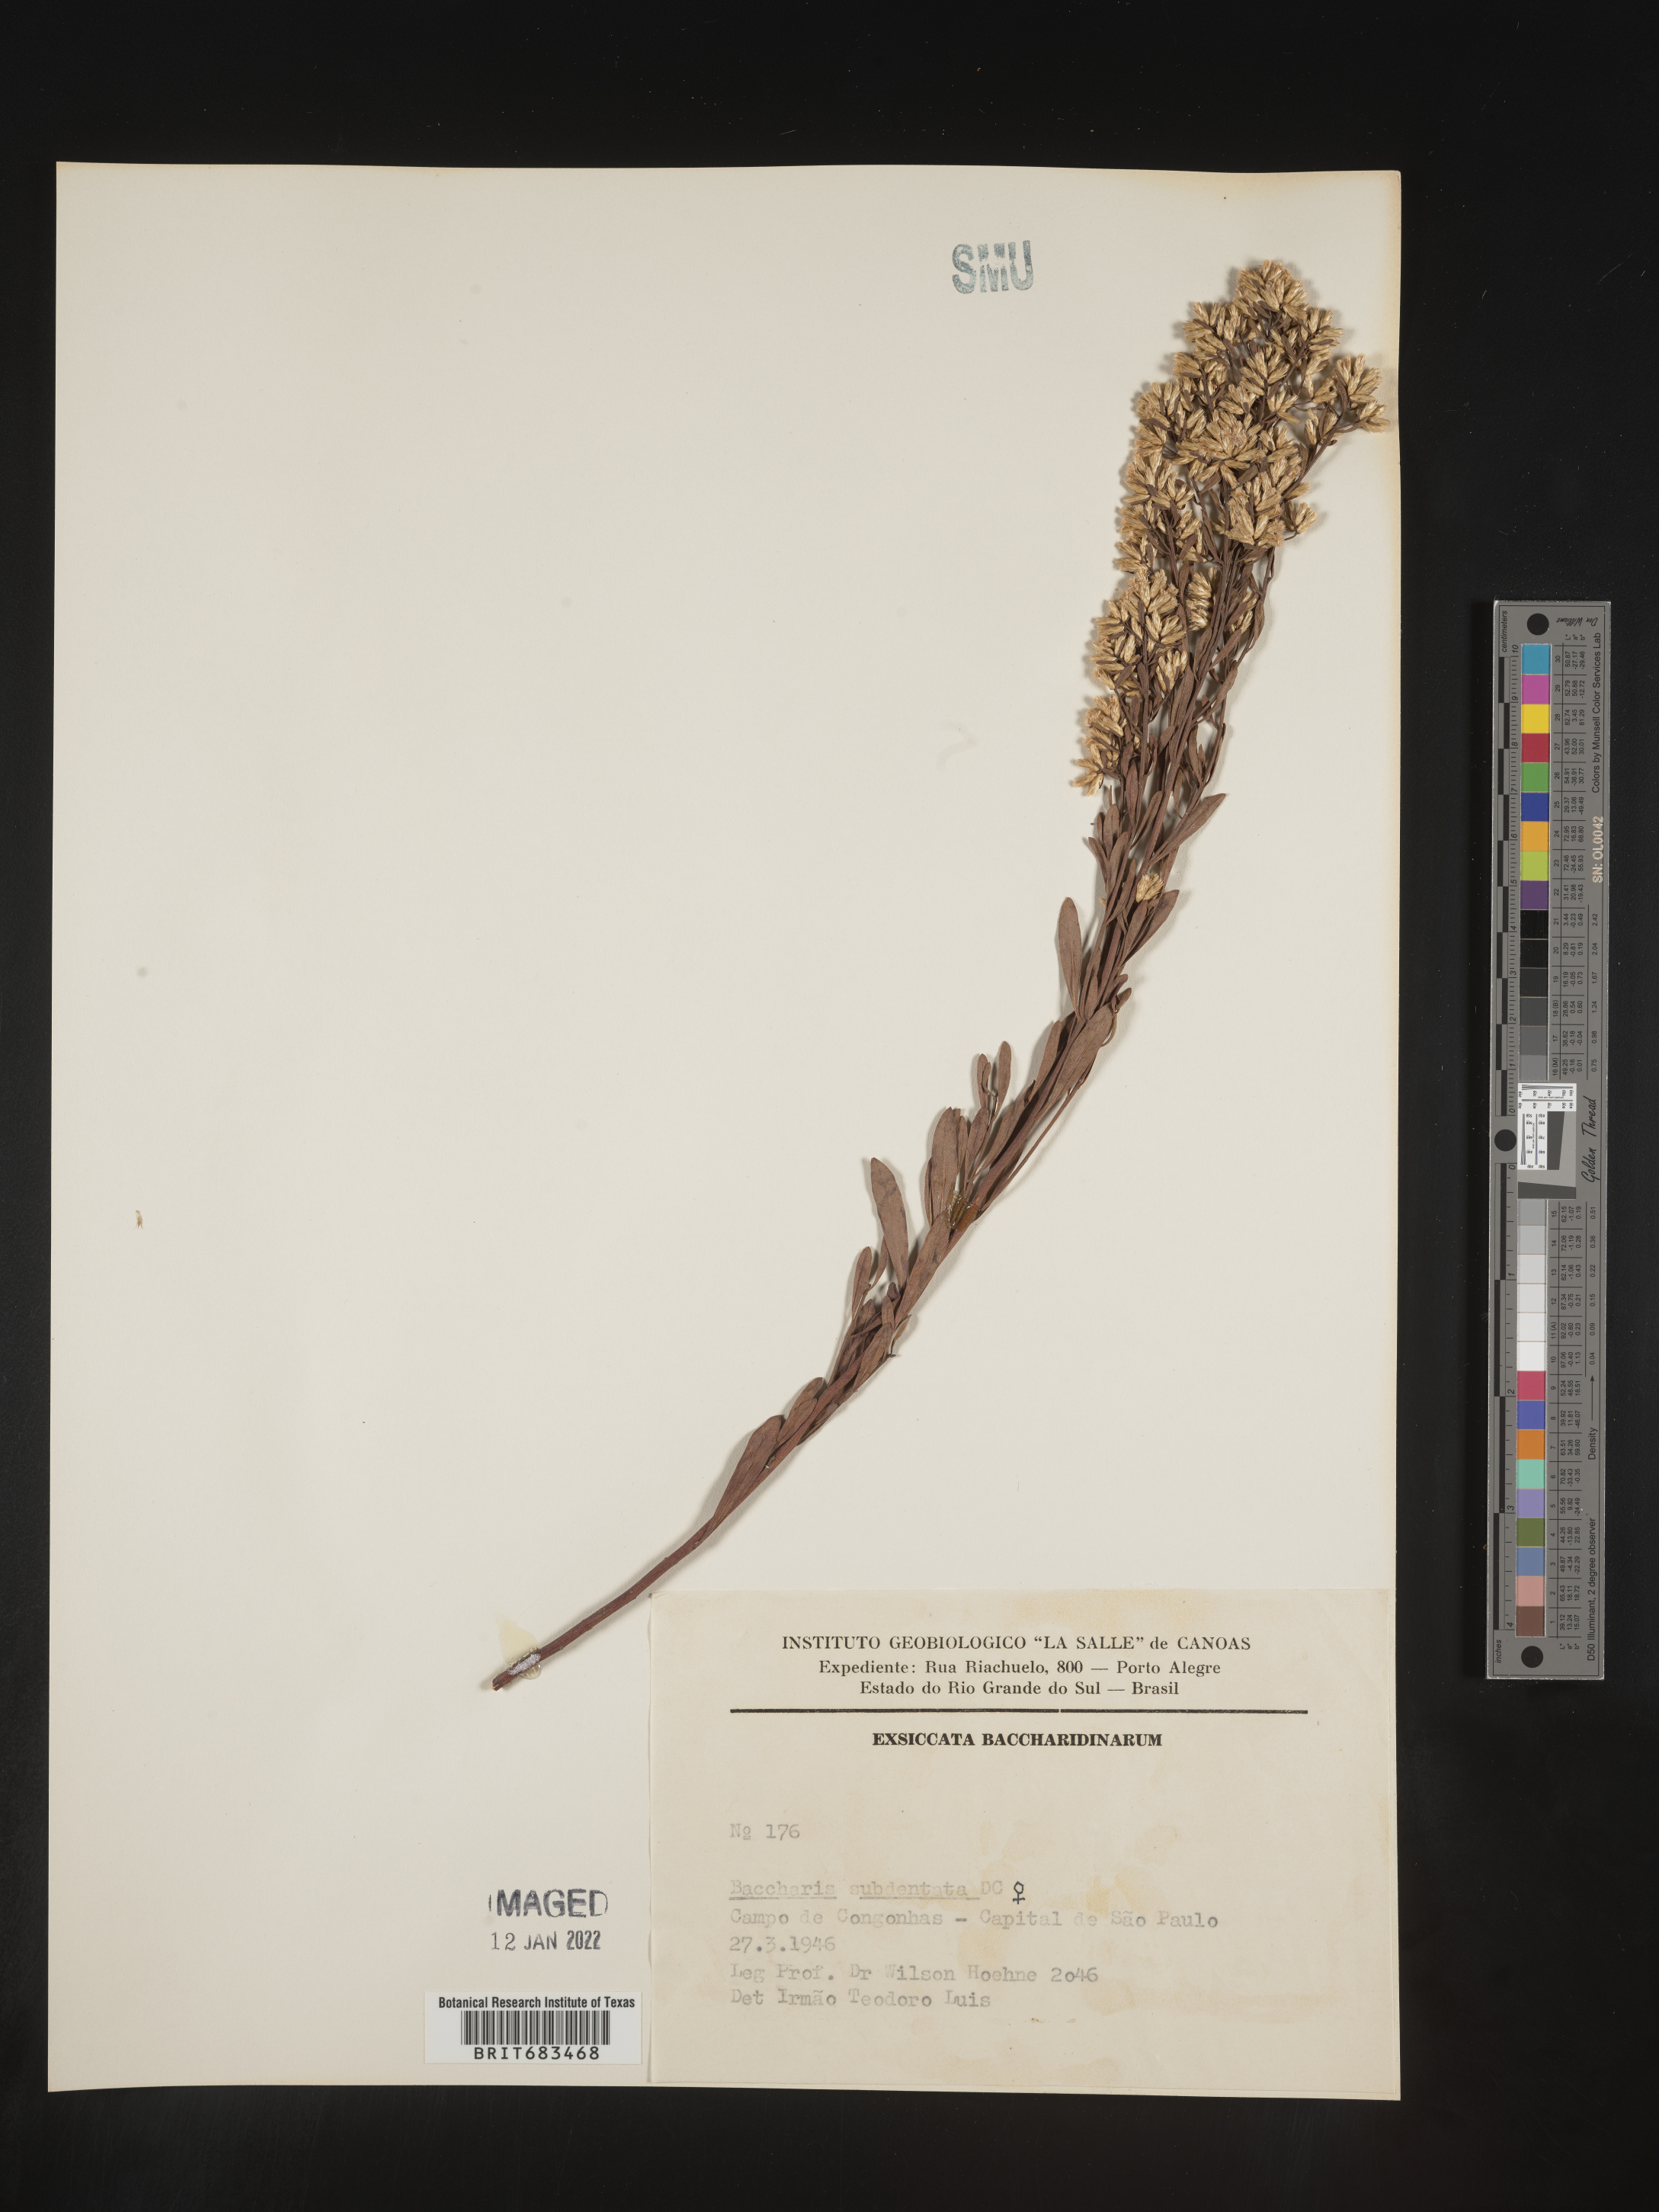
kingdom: Plantae
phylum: Tracheophyta
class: Magnoliopsida
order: Asterales
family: Asteraceae
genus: Baccharis
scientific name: Baccharis
